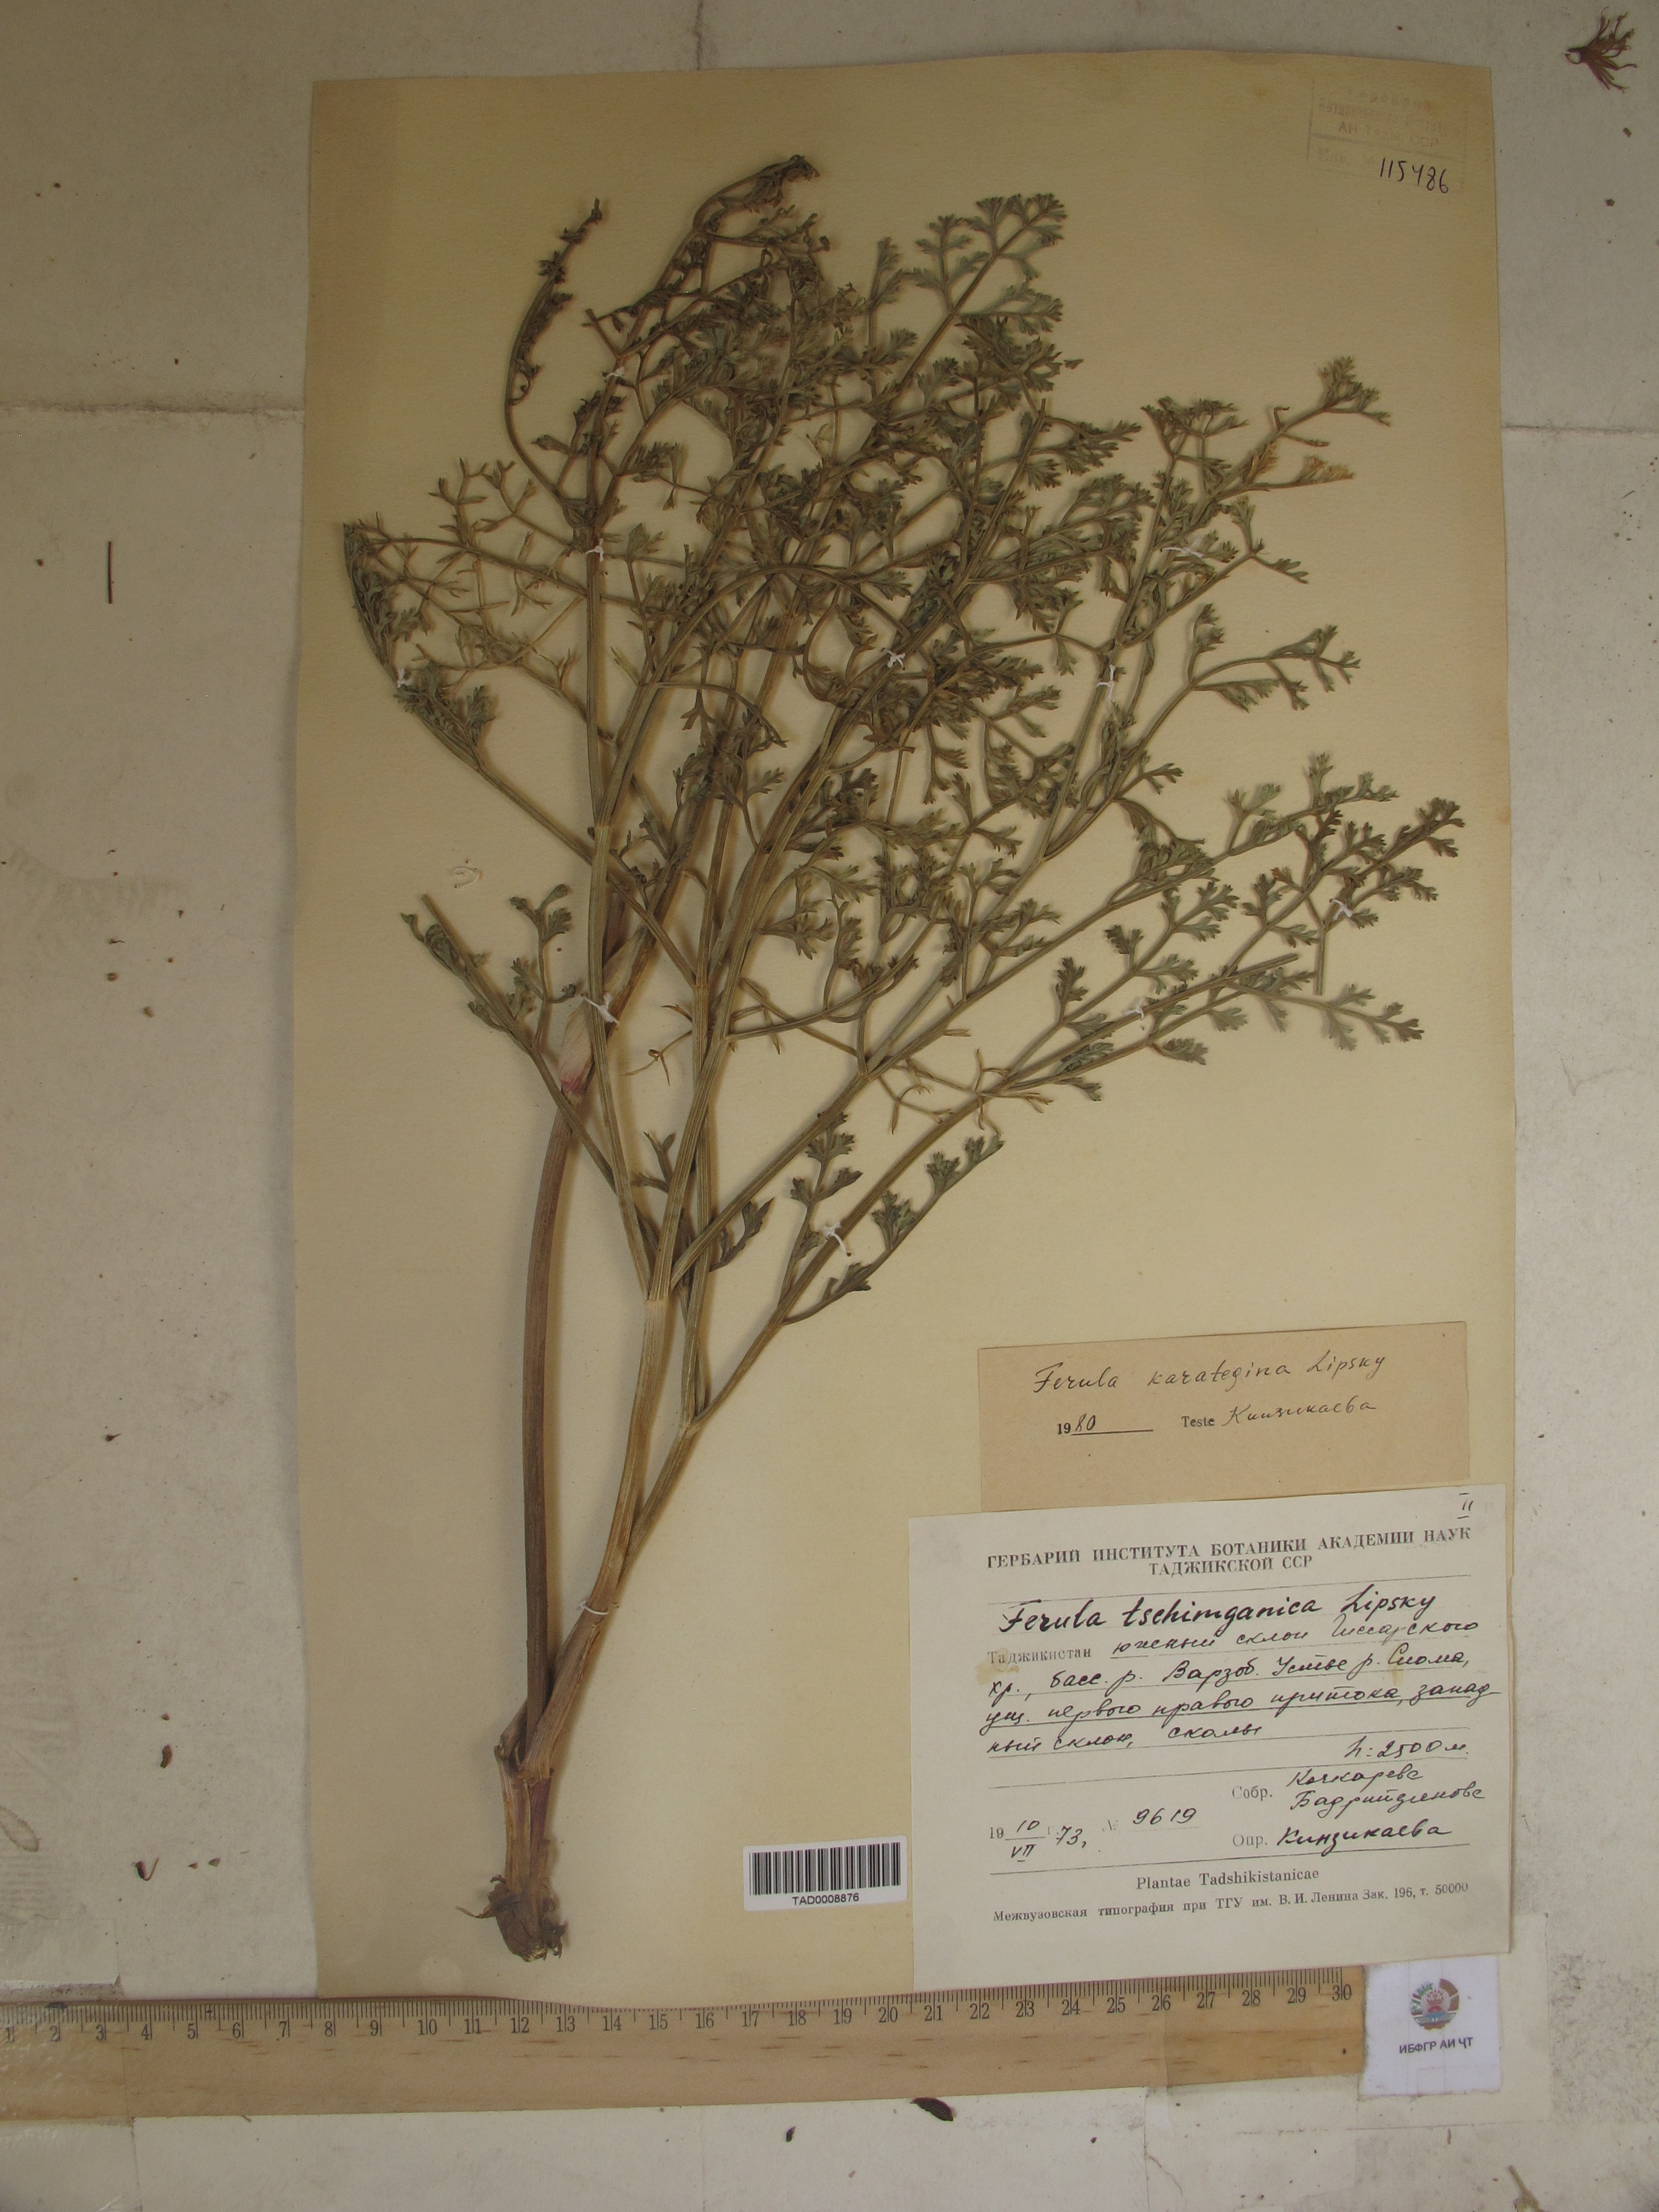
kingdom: Plantae
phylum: Tracheophyta
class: Magnoliopsida
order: Apiales
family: Apiaceae
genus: Ferula
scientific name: Ferula tschimganica
